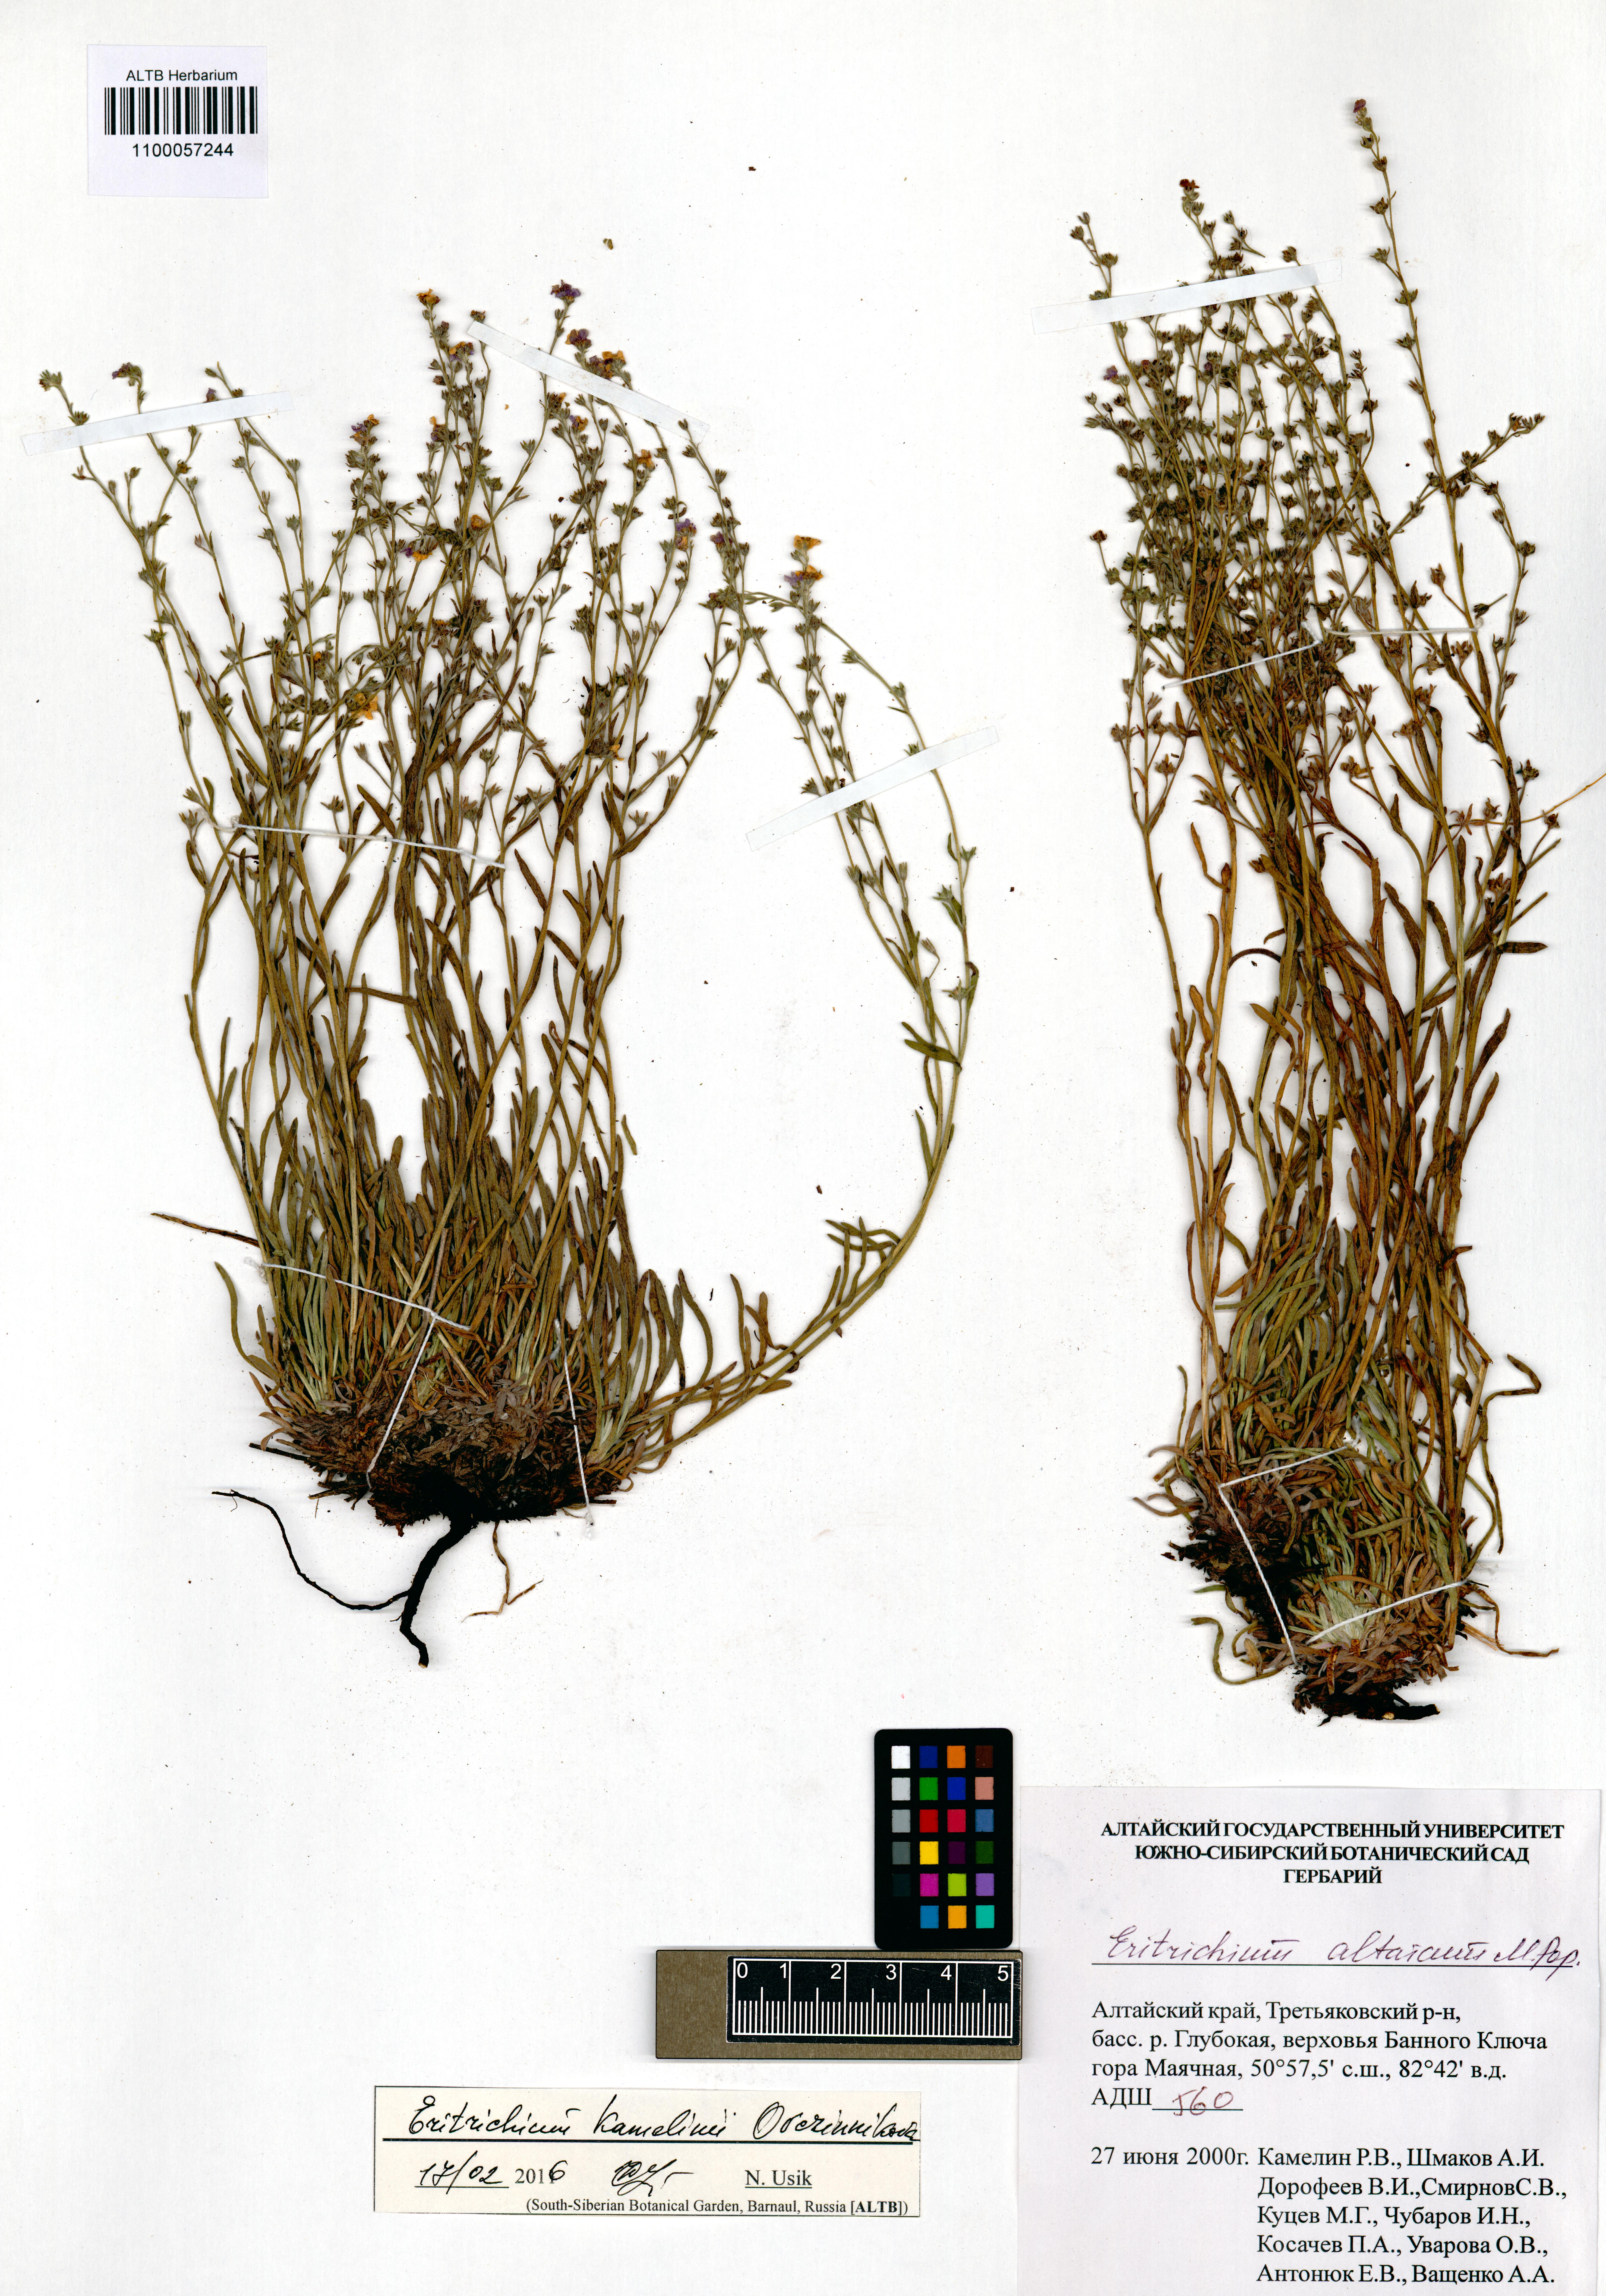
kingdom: Plantae
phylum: Tracheophyta
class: Magnoliopsida
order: Boraginales
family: Boraginaceae
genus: Eritrichium
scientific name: Eritrichium kamelinii
